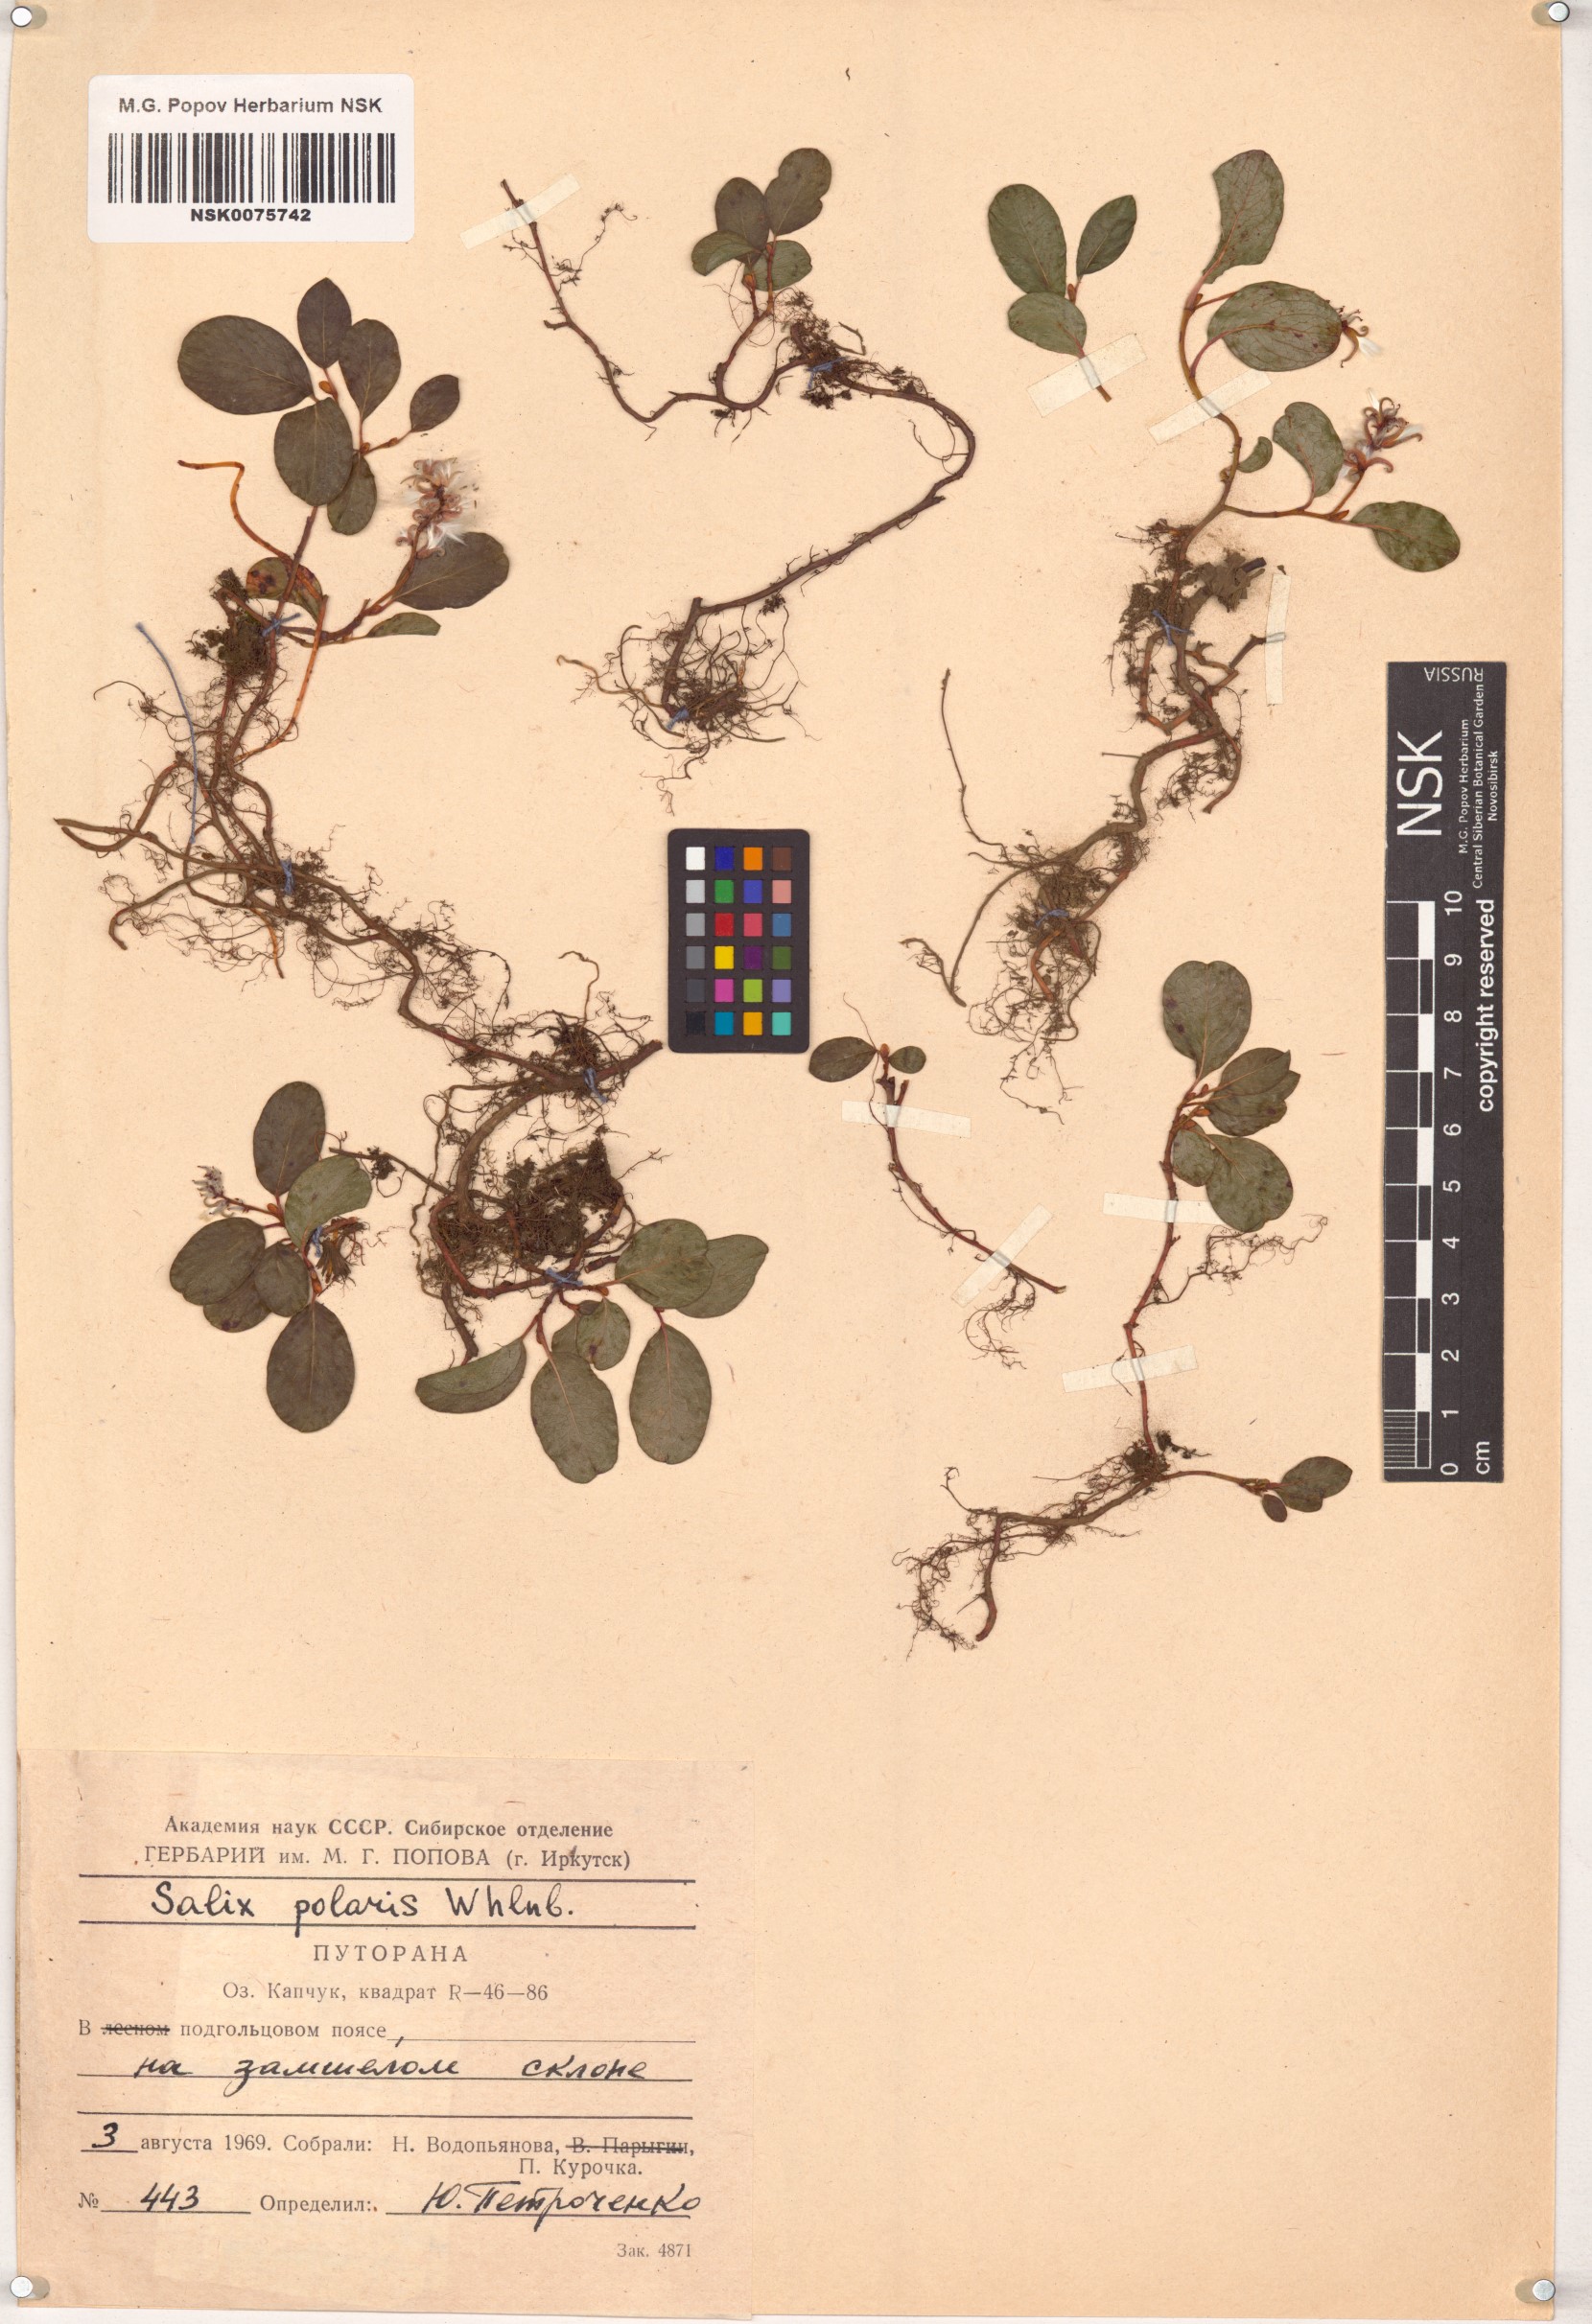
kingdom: Plantae
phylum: Tracheophyta
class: Magnoliopsida
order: Malpighiales
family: Salicaceae
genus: Salix
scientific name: Salix polaris
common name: Polar willow
